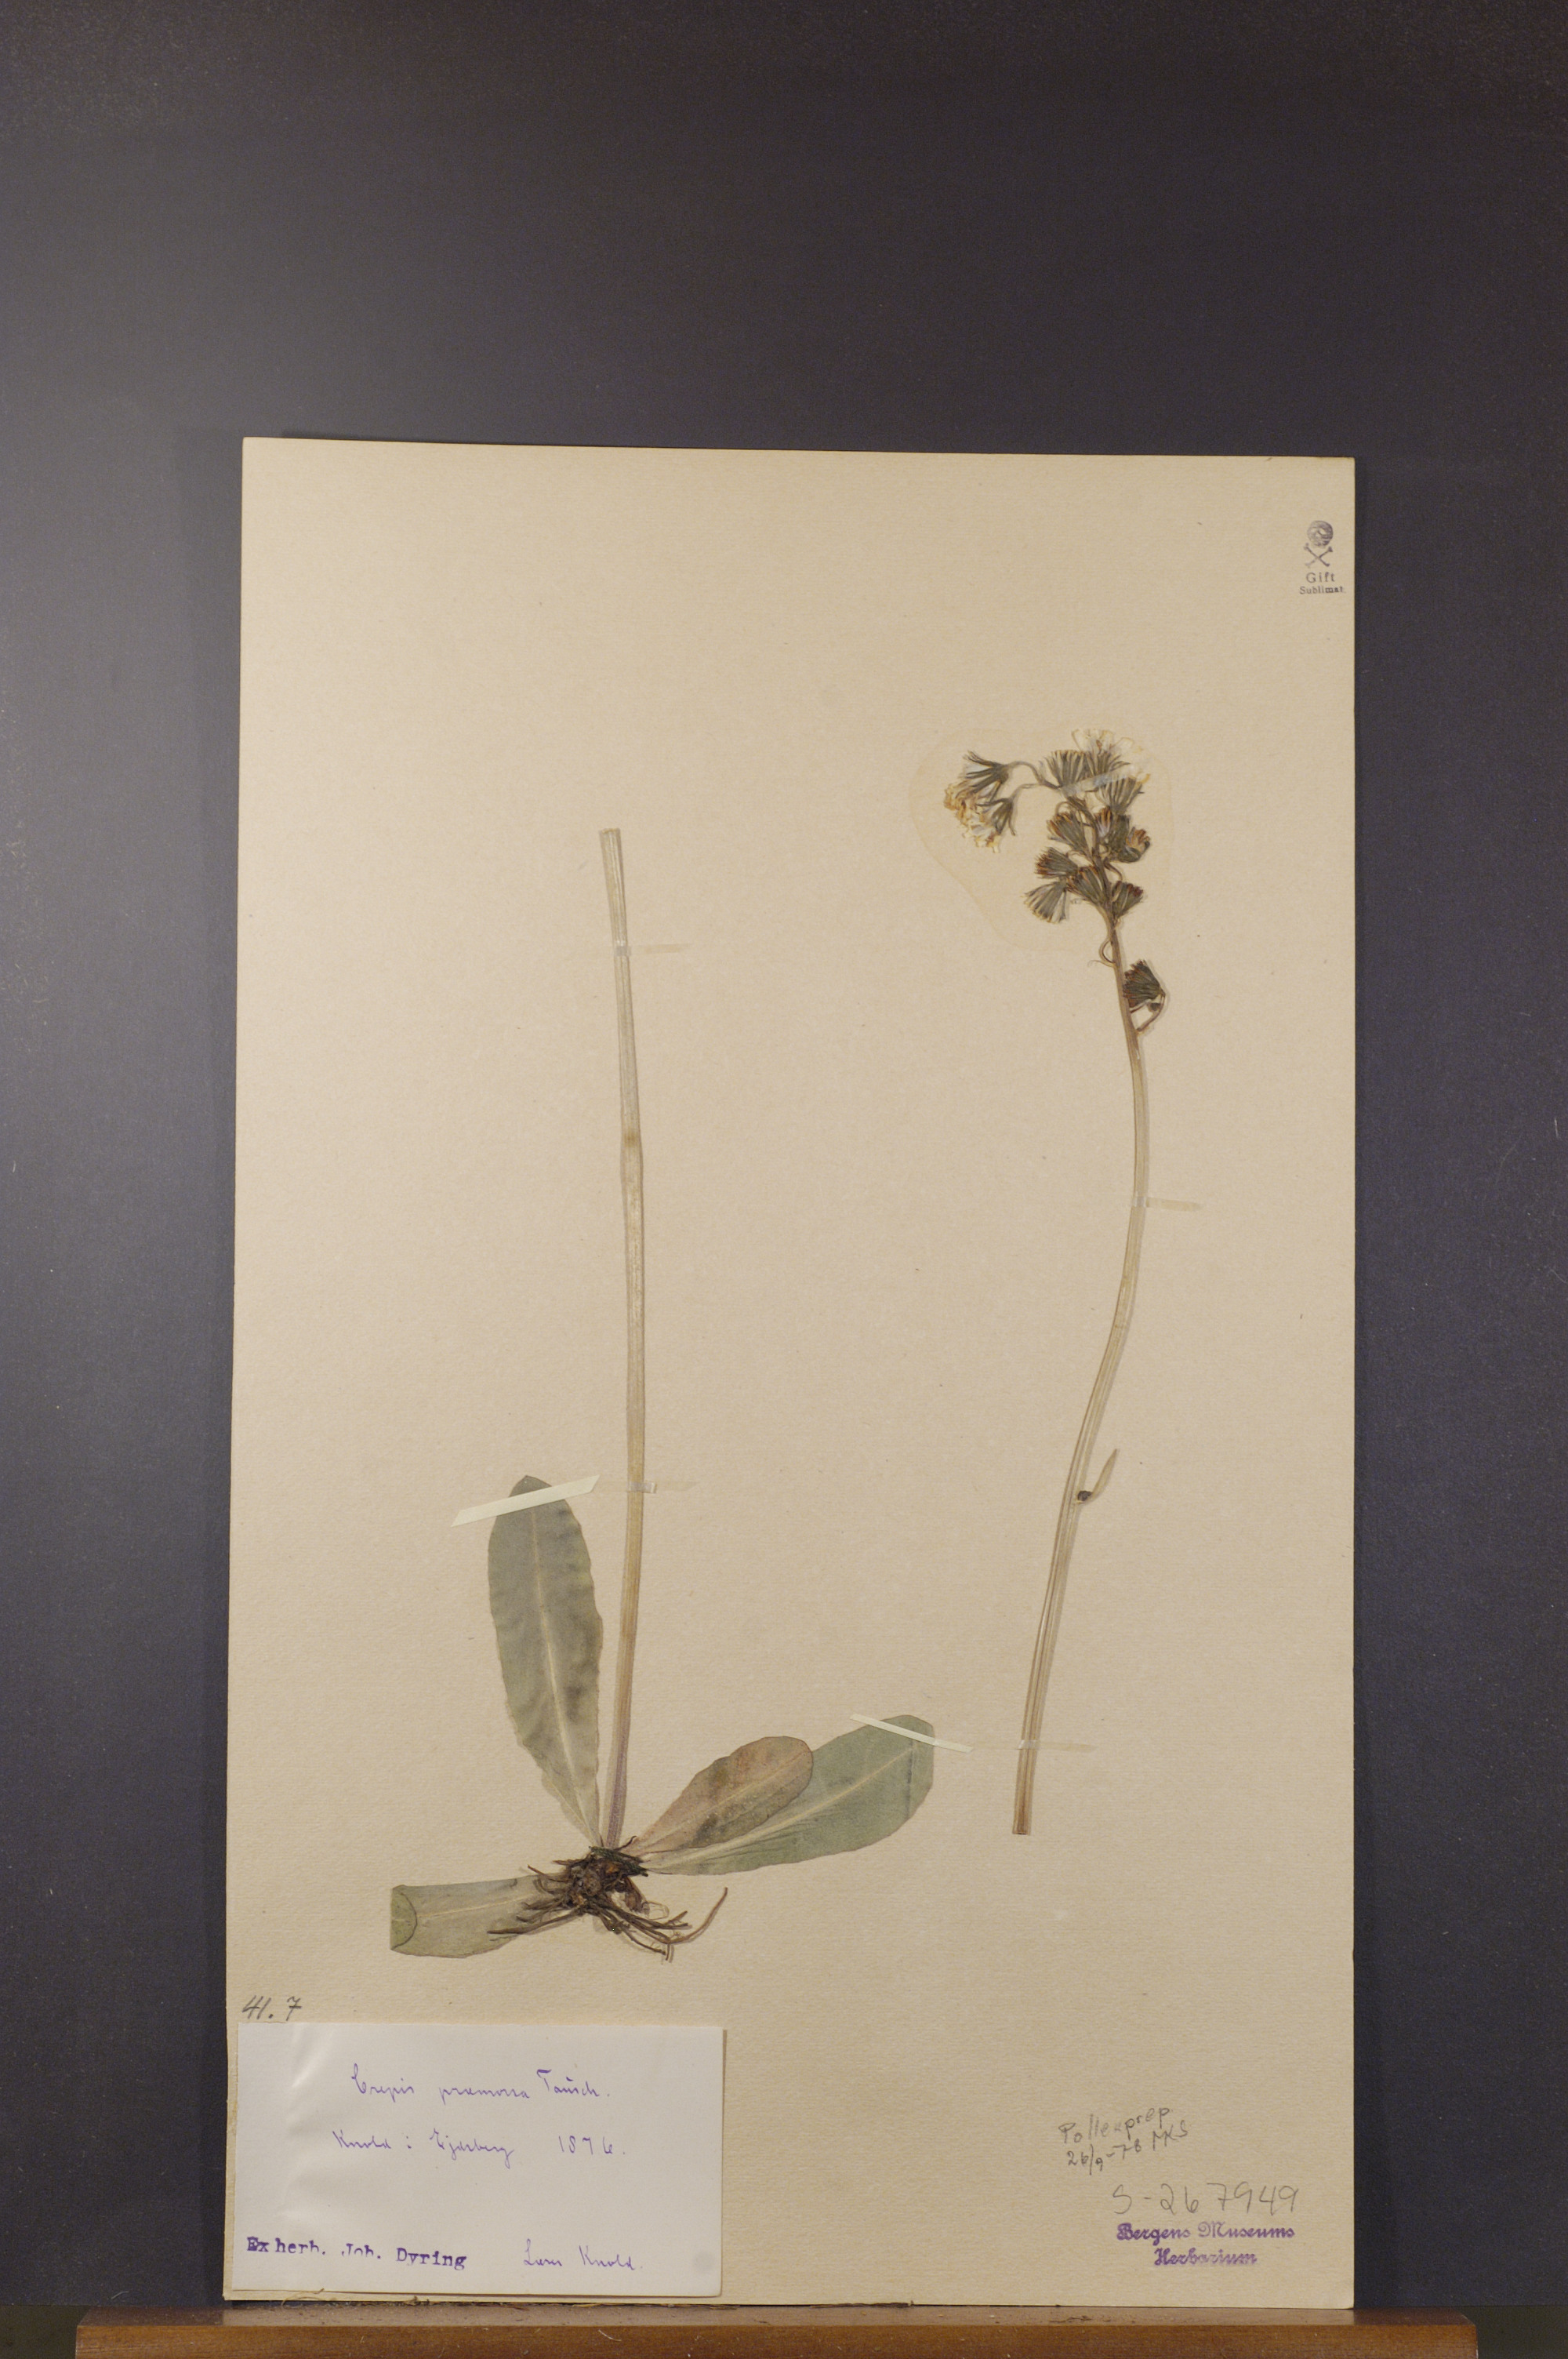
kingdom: Plantae
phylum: Tracheophyta
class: Magnoliopsida
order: Asterales
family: Asteraceae
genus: Crepis
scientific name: Crepis praemorsa
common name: Leafless hawk's-beard
